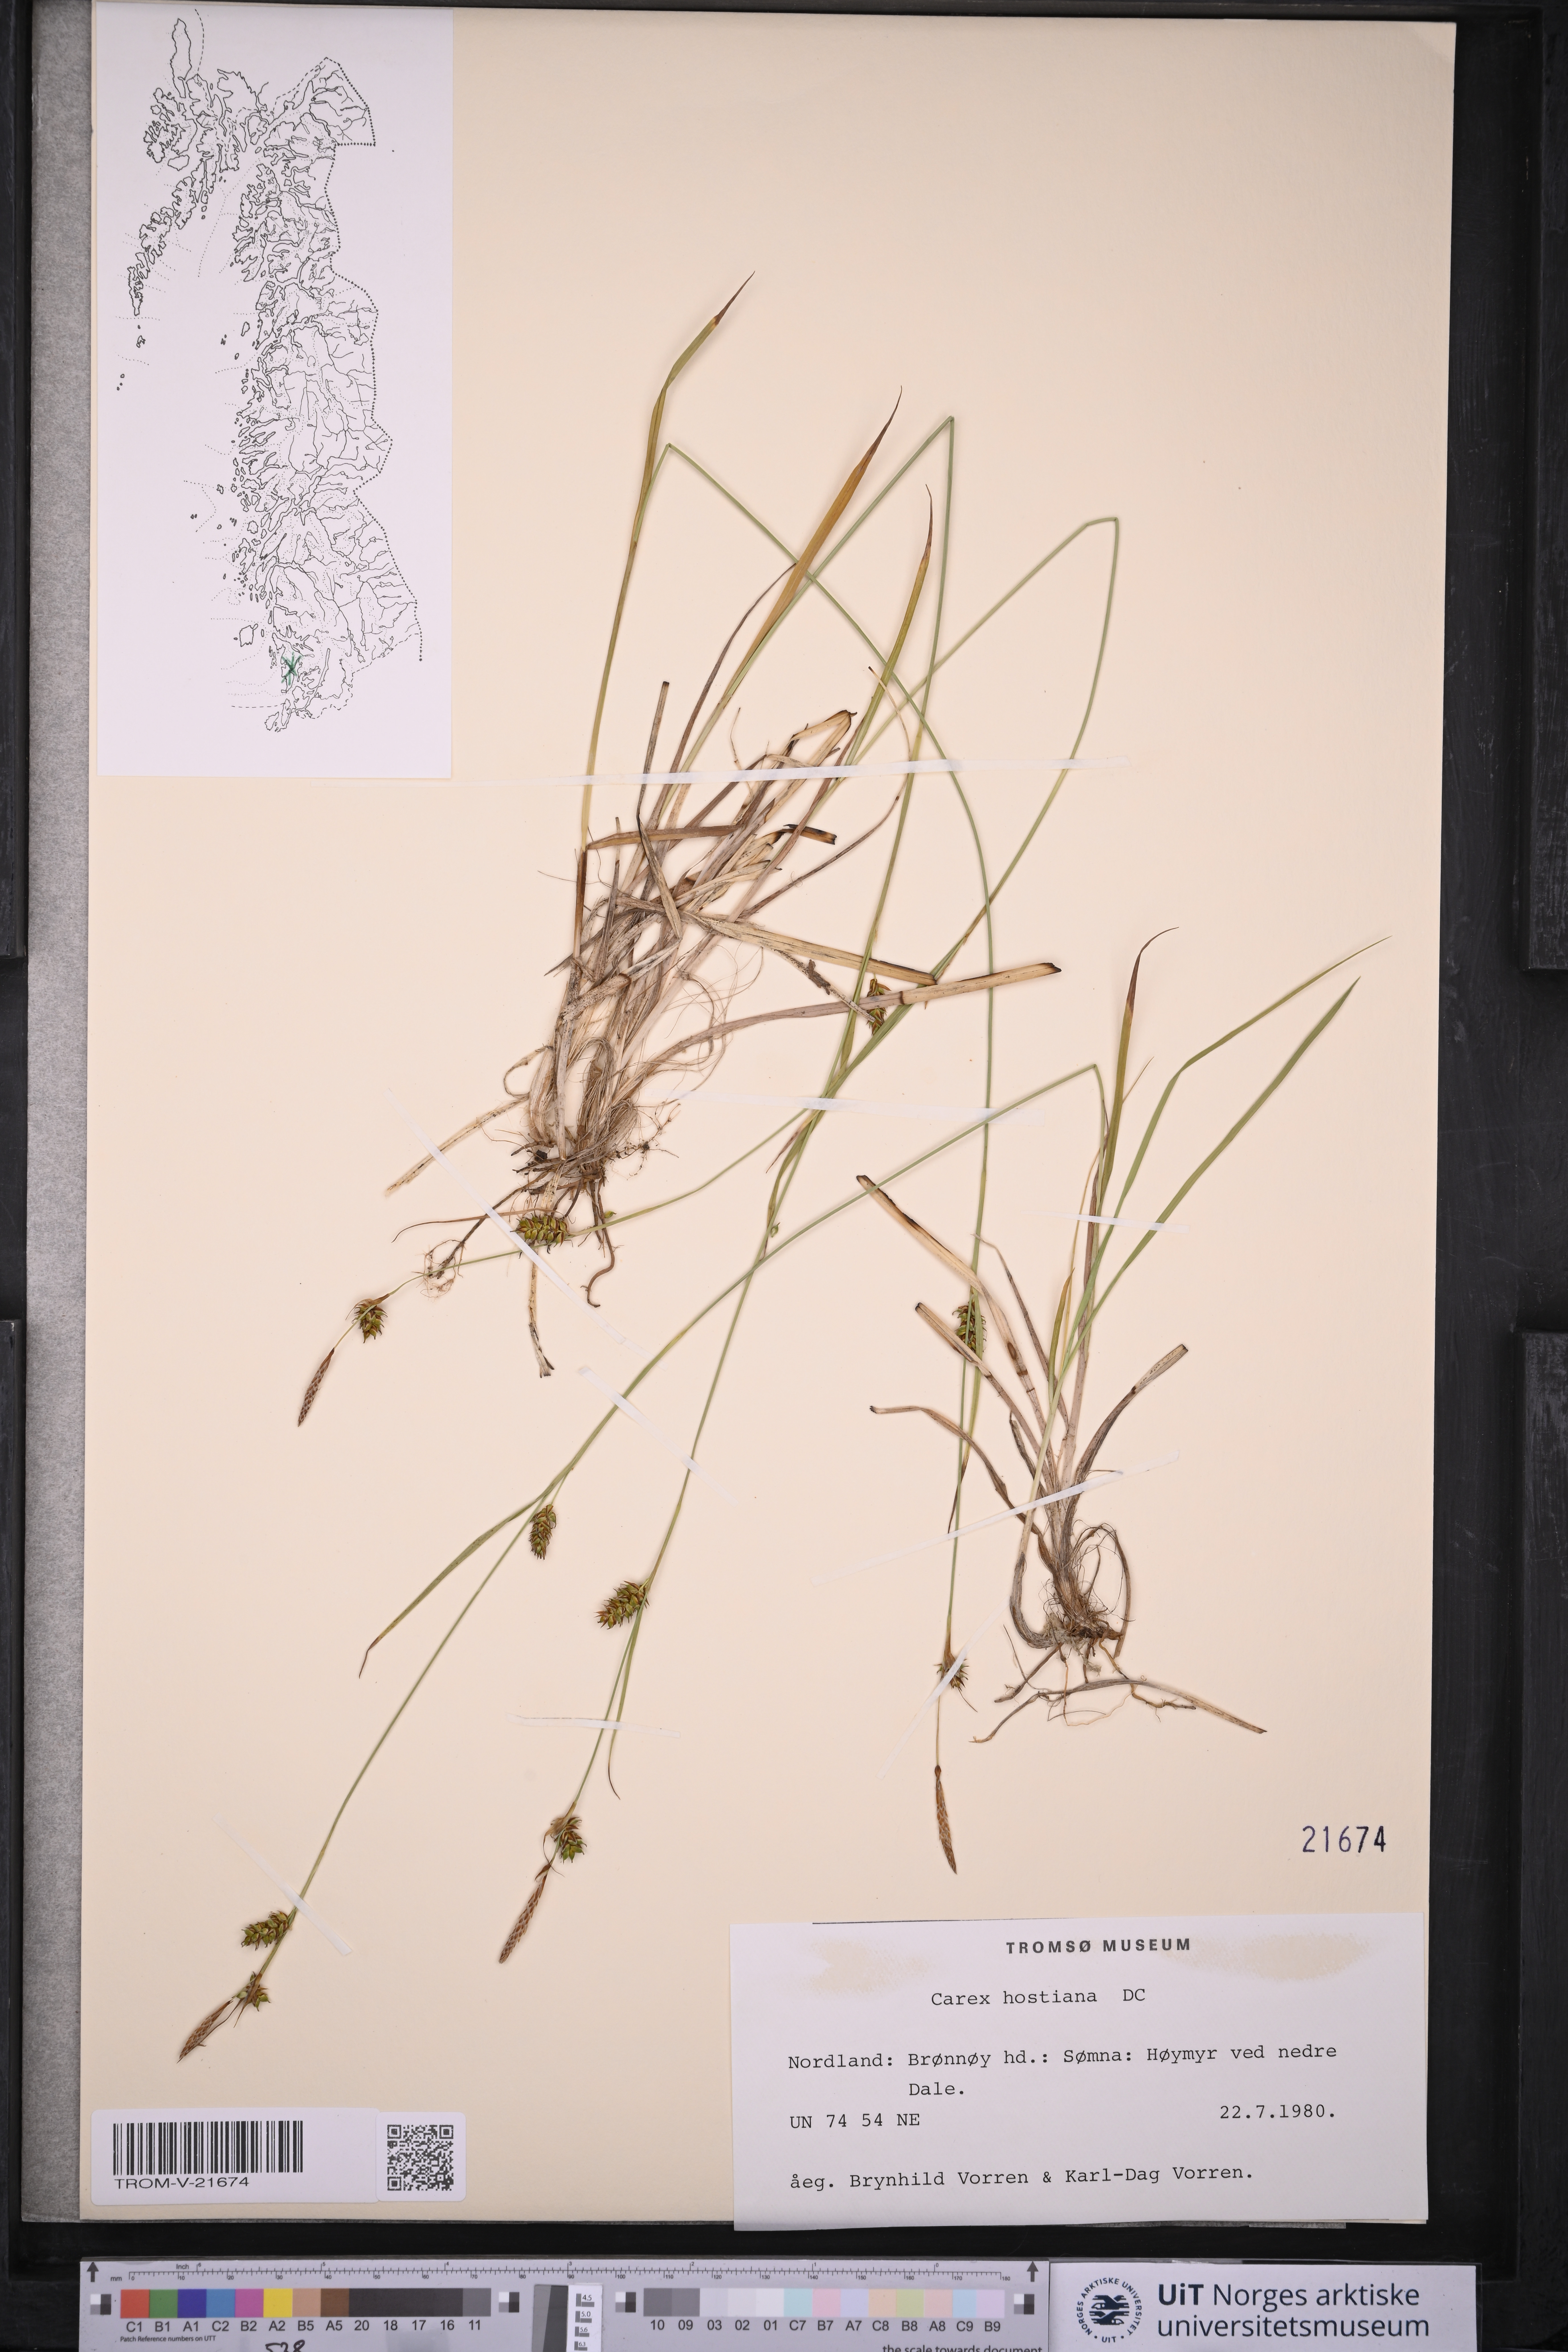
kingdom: Plantae
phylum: Tracheophyta
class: Liliopsida
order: Poales
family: Cyperaceae
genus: Carex
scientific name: Carex hostiana
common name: Tawny sedge
